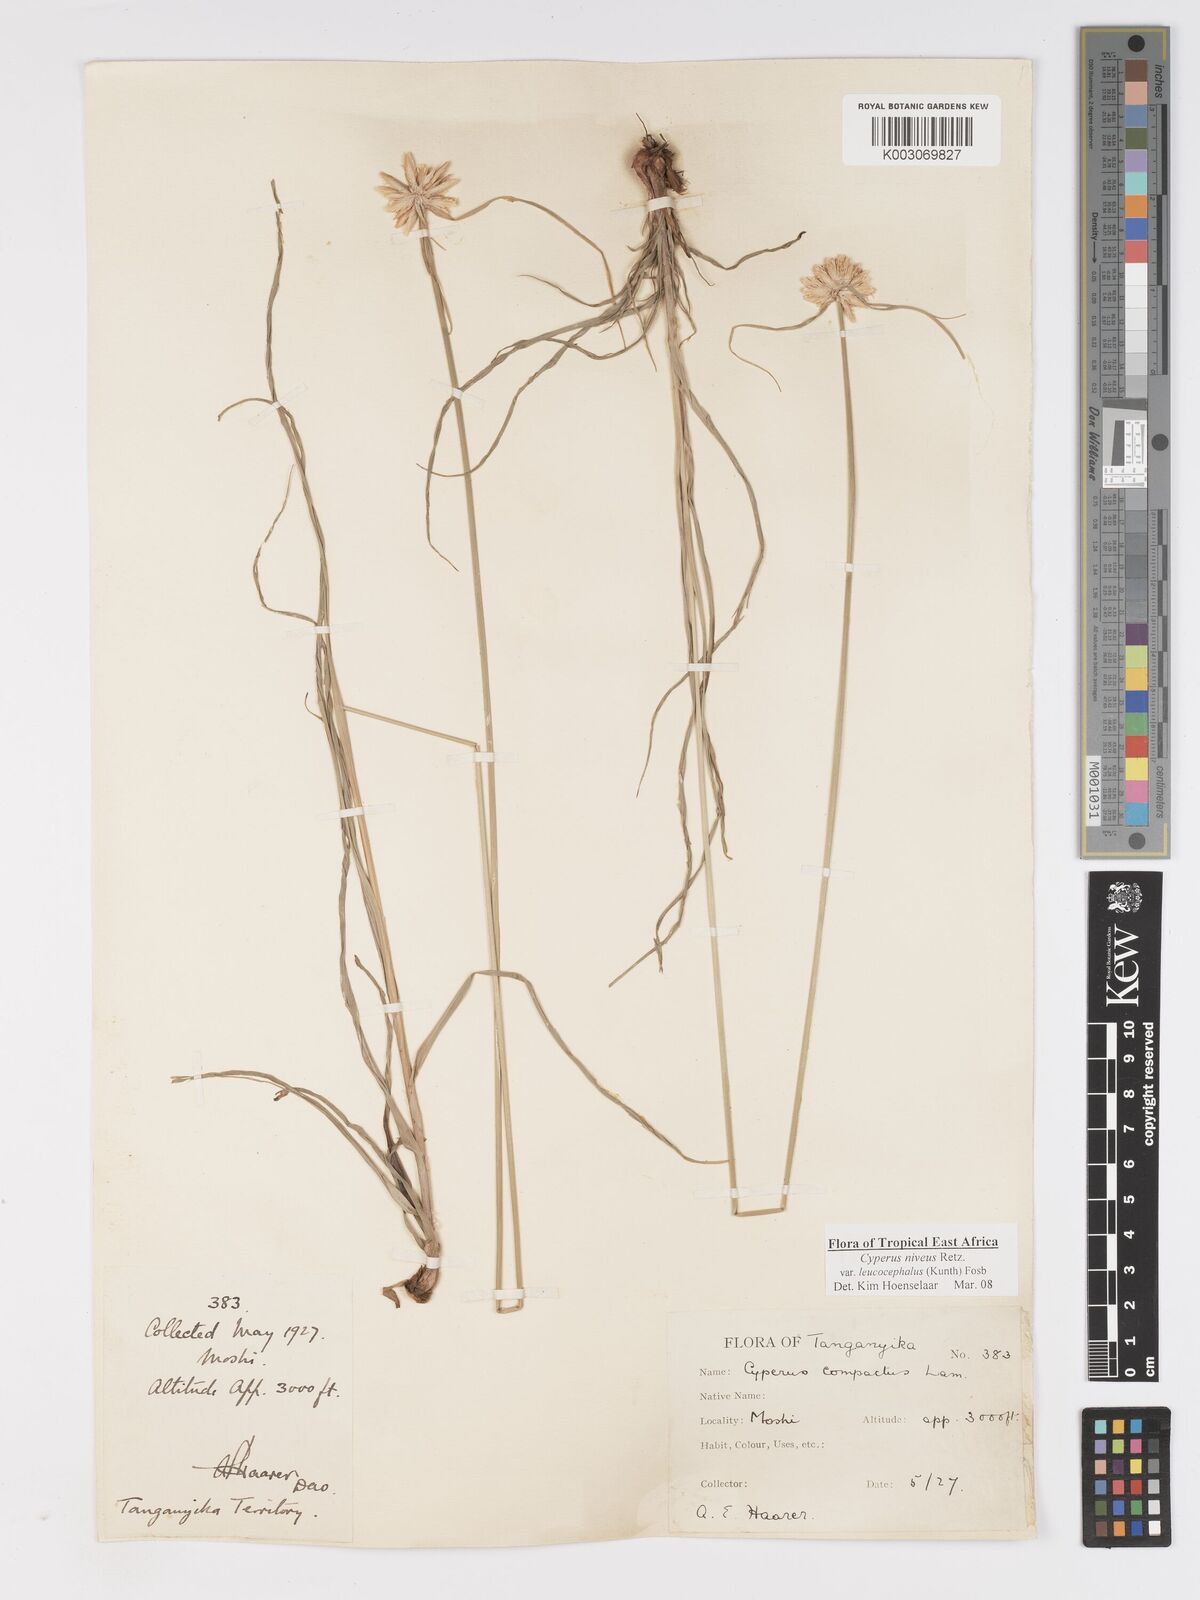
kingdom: Plantae
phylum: Tracheophyta
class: Liliopsida
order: Poales
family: Cyperaceae
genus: Cyperus
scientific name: Cyperus niveus
